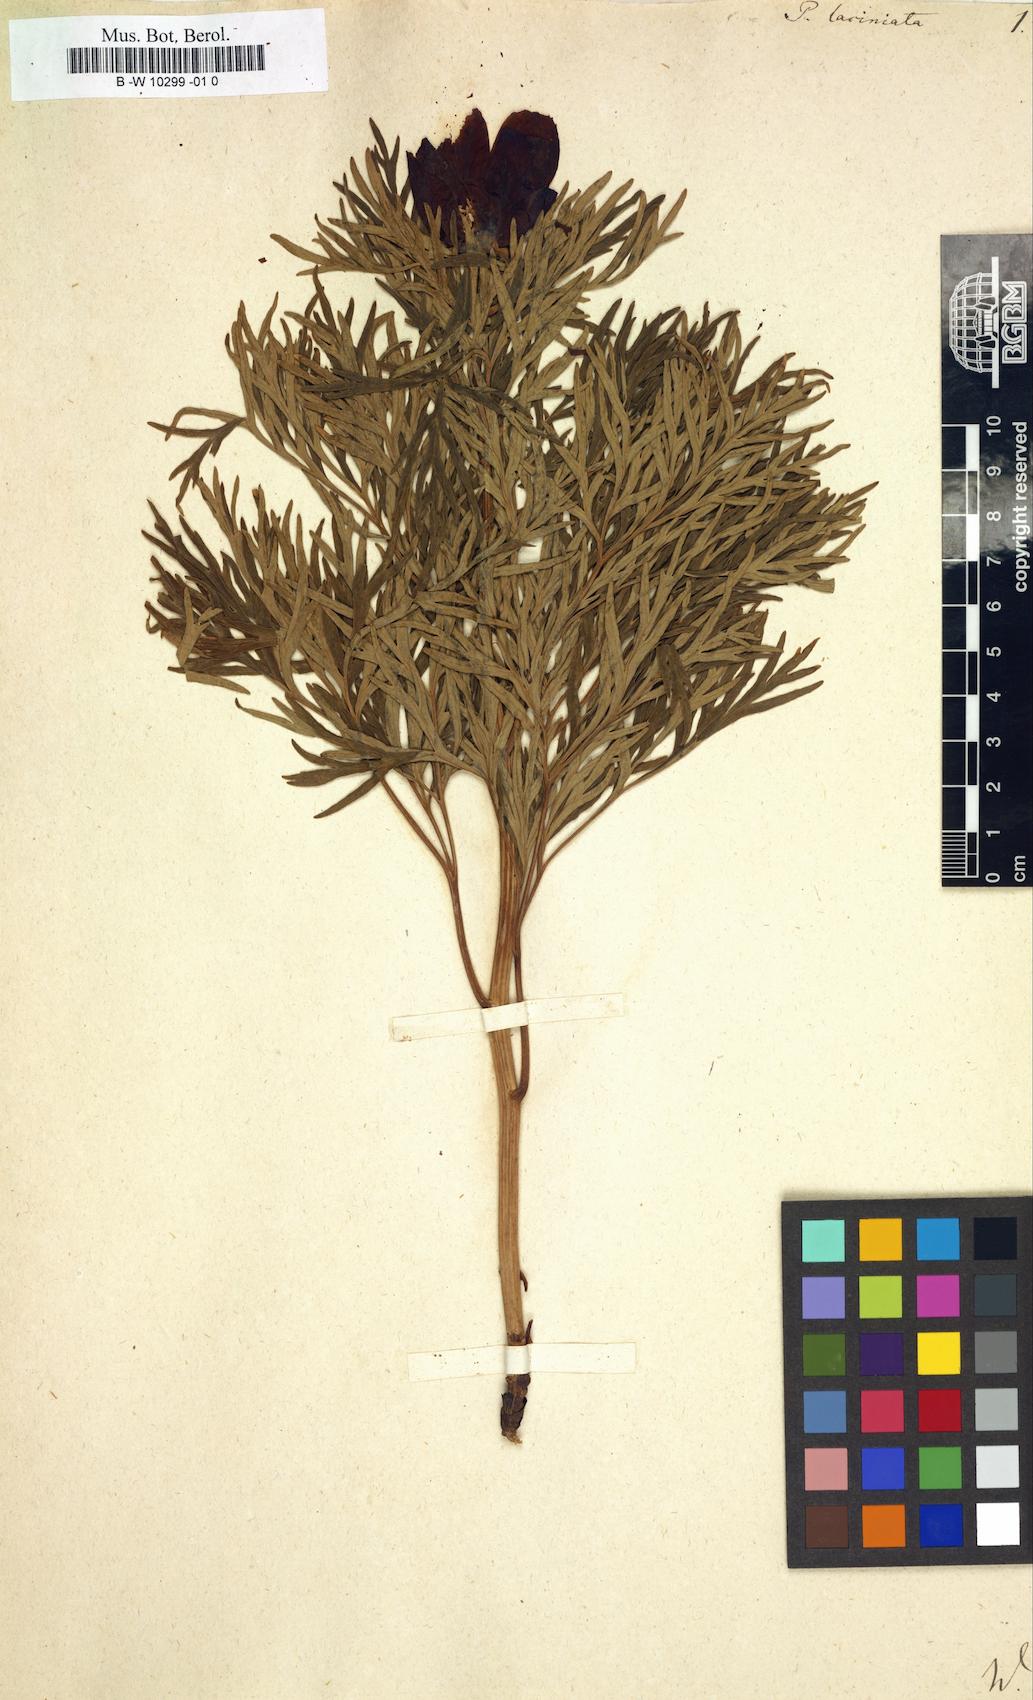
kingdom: Plantae
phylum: Tracheophyta
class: Magnoliopsida
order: Saxifragales
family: Paeoniaceae
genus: Paeonia
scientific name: Paeonia
